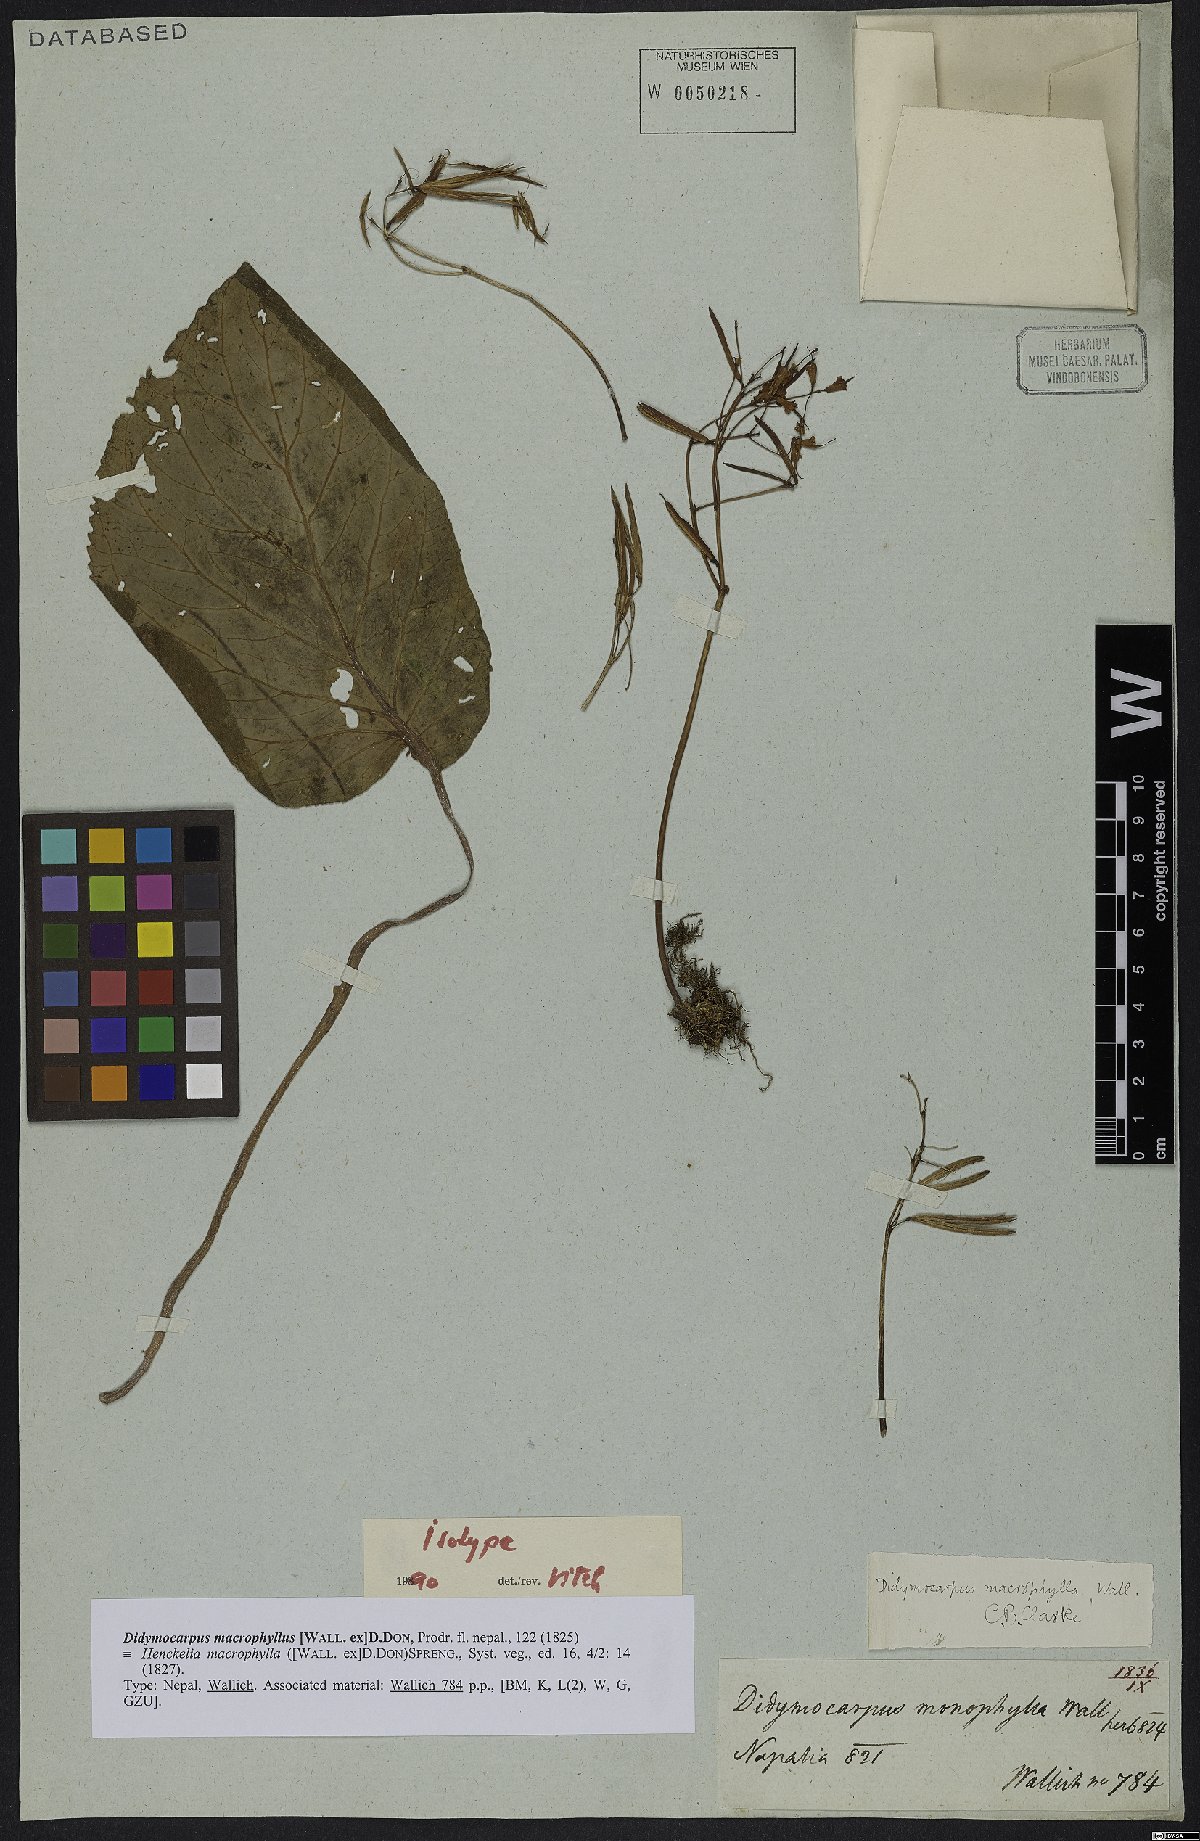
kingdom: Plantae
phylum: Tracheophyta
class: Magnoliopsida
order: Lamiales
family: Gesneriaceae
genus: Didymocarpus
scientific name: Didymocarpus macrophyllus
